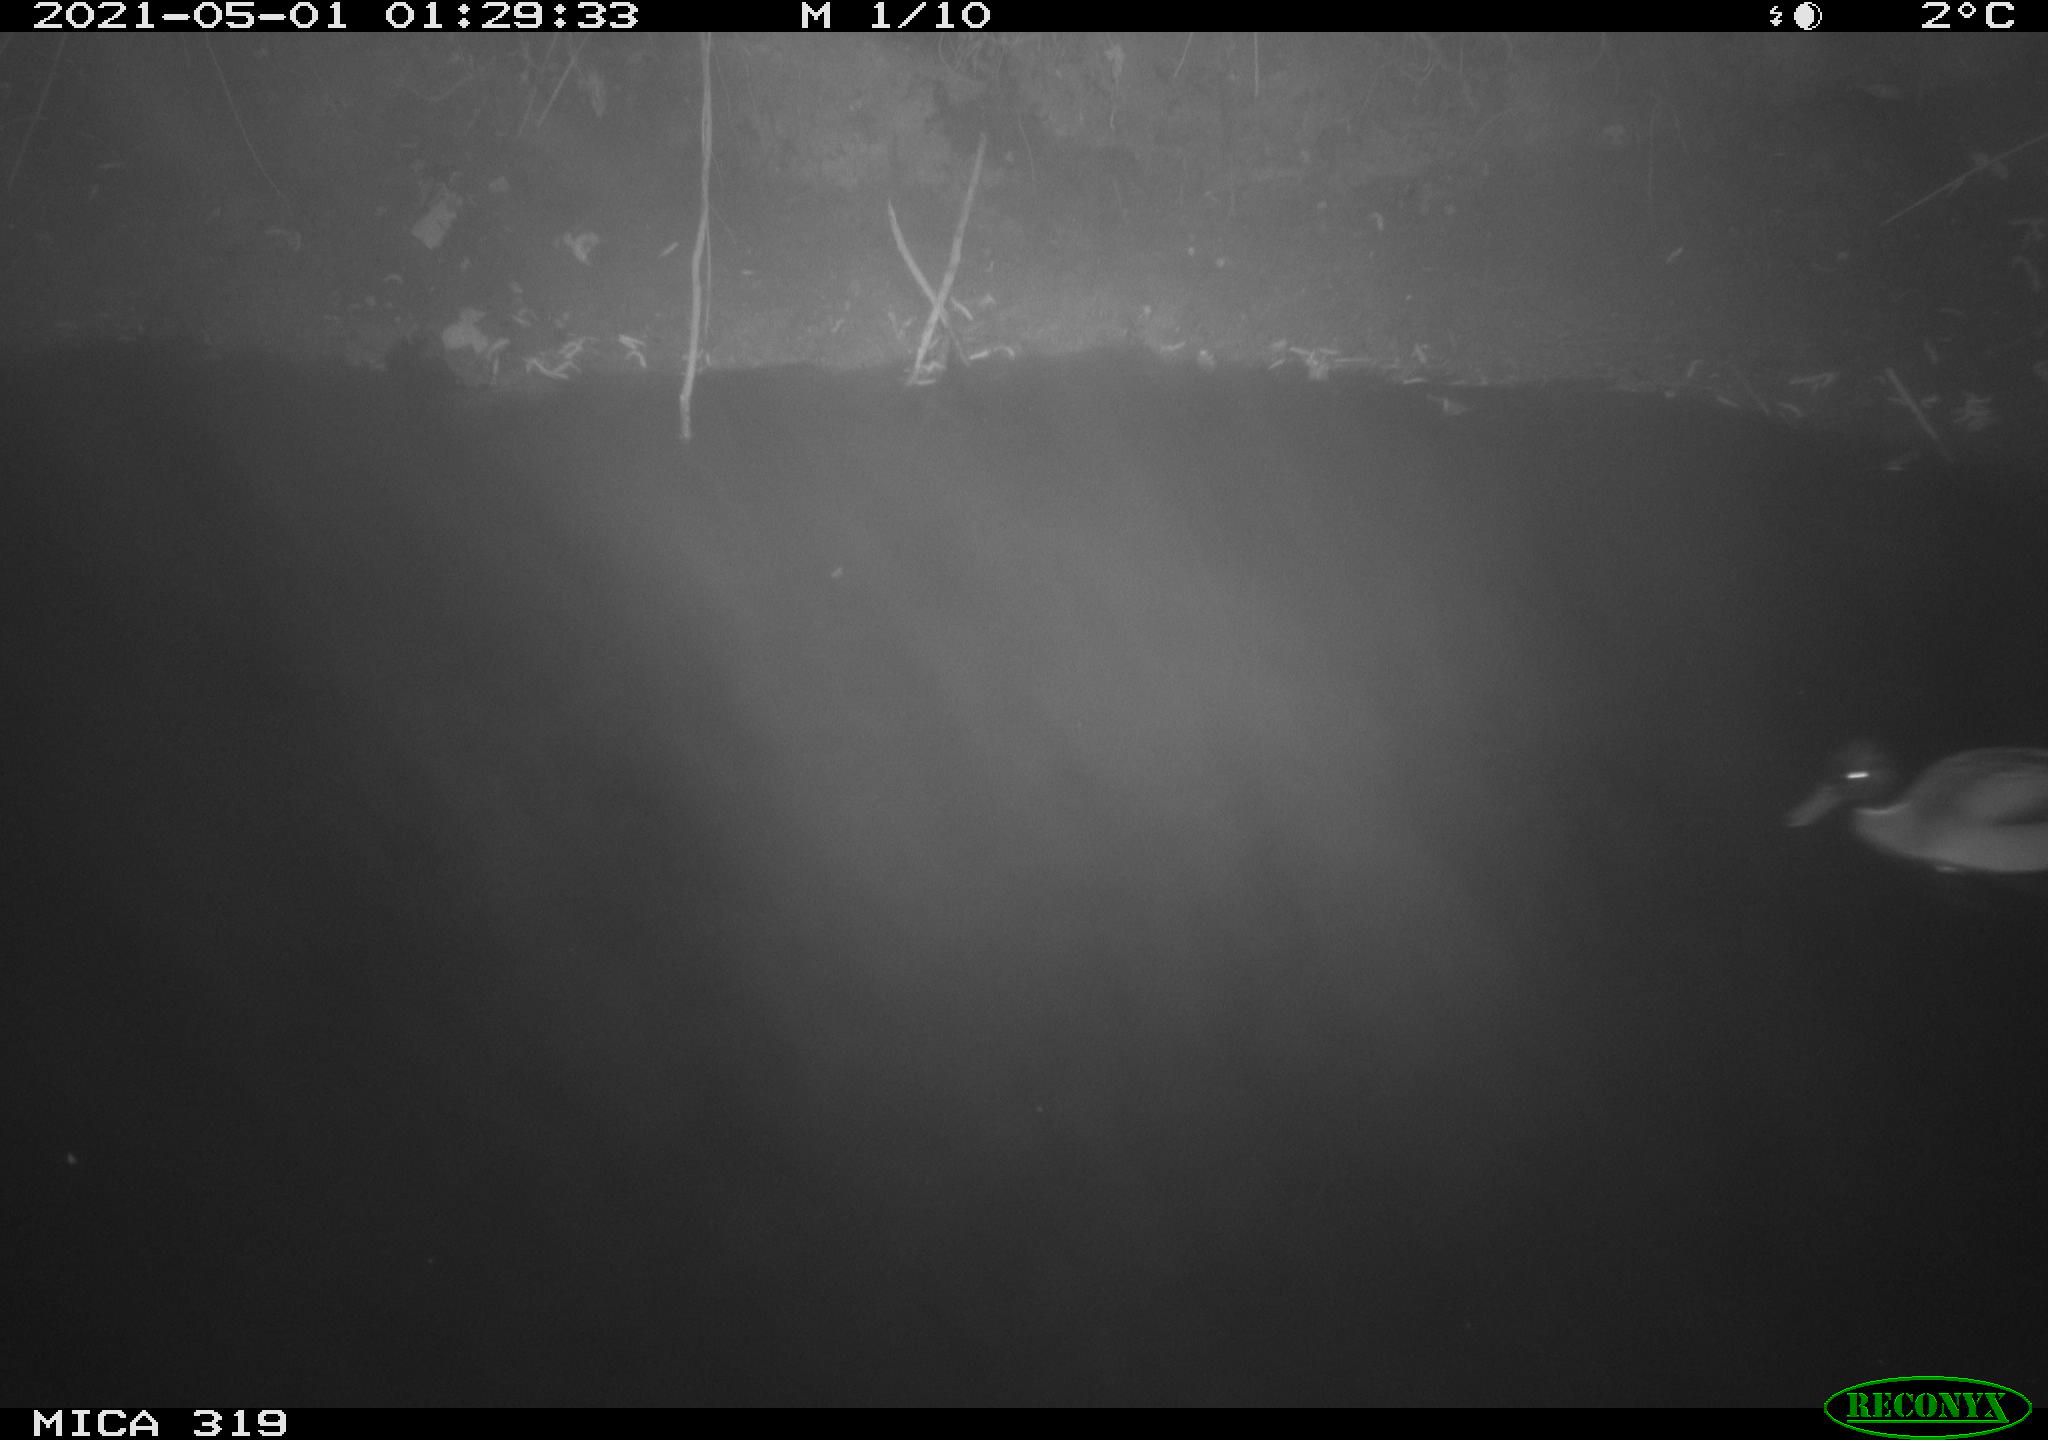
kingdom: Animalia
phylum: Chordata
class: Aves
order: Anseriformes
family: Anatidae
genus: Anas
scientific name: Anas platyrhynchos
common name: Mallard
